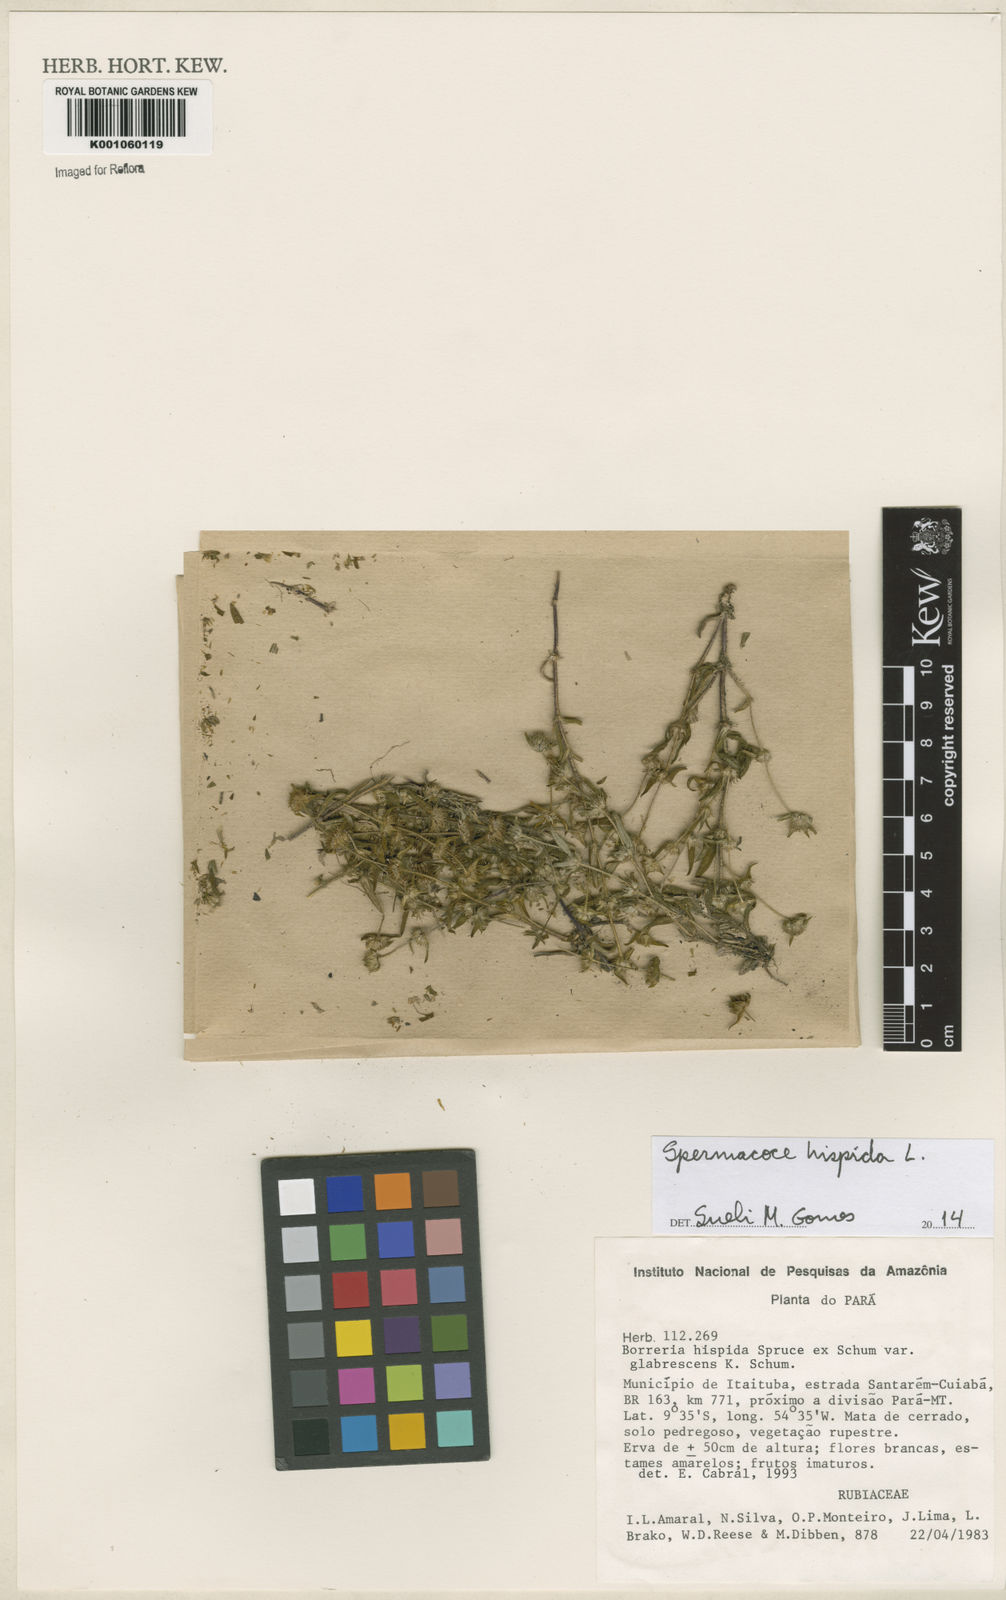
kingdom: Plantae
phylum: Tracheophyta
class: Magnoliopsida
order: Gentianales
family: Rubiaceae
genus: Spermacoce
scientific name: Spermacoce hispida
